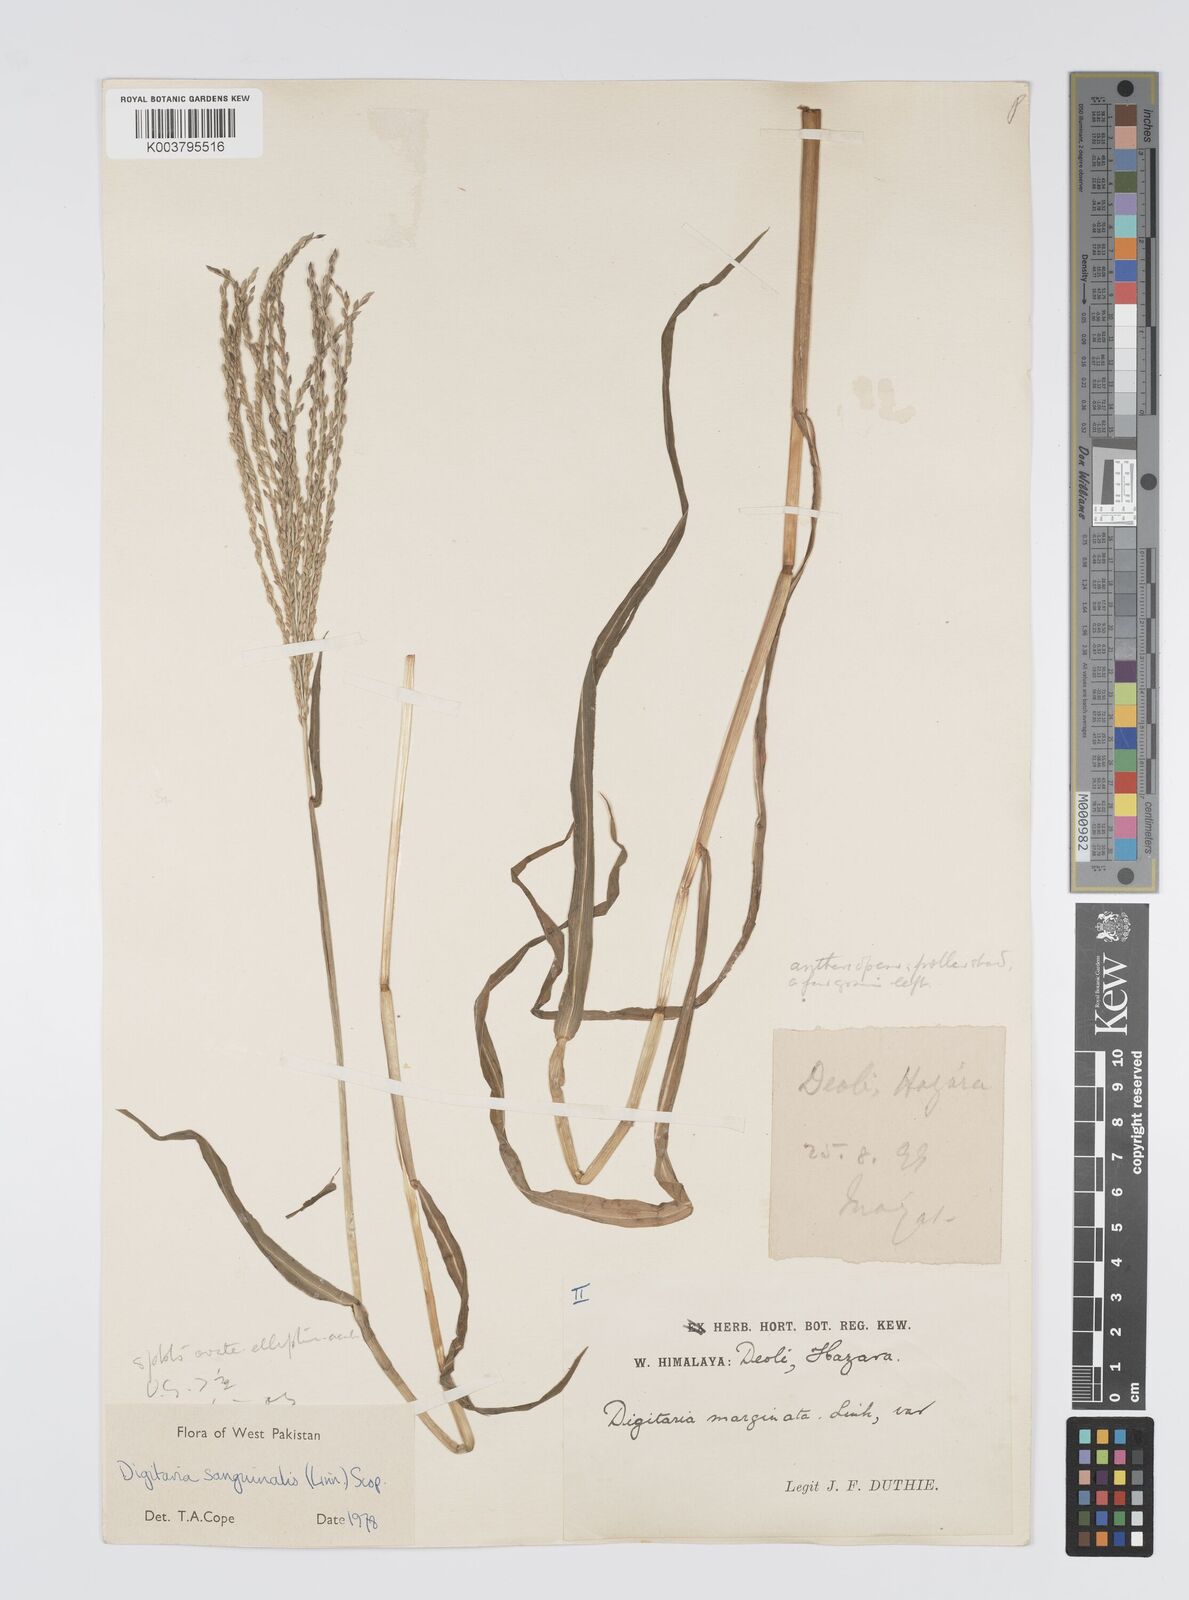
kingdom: Plantae
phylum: Tracheophyta
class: Liliopsida
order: Poales
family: Poaceae
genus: Digitaria
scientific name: Digitaria sanguinalis
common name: Hairy crabgrass
